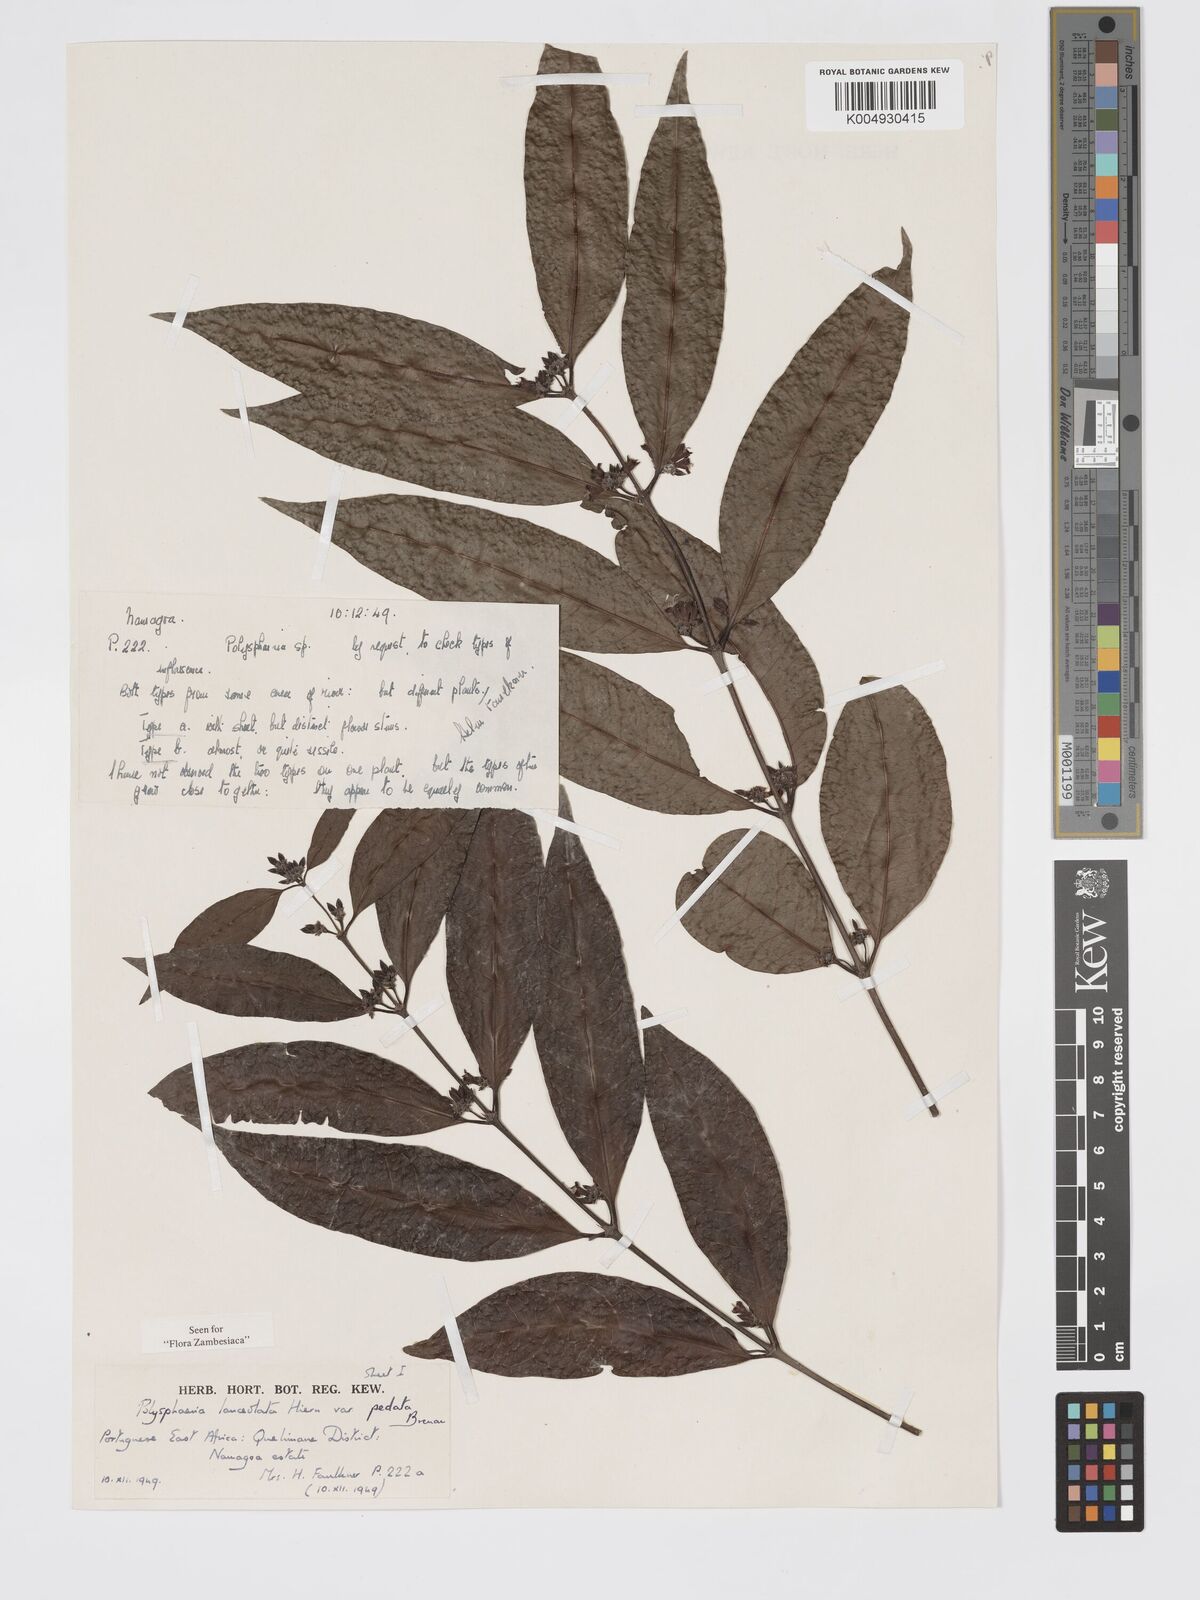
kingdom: Plantae
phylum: Tracheophyta
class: Magnoliopsida
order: Gentianales
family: Rubiaceae
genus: Polysphaeria
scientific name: Polysphaeria lanceolata
